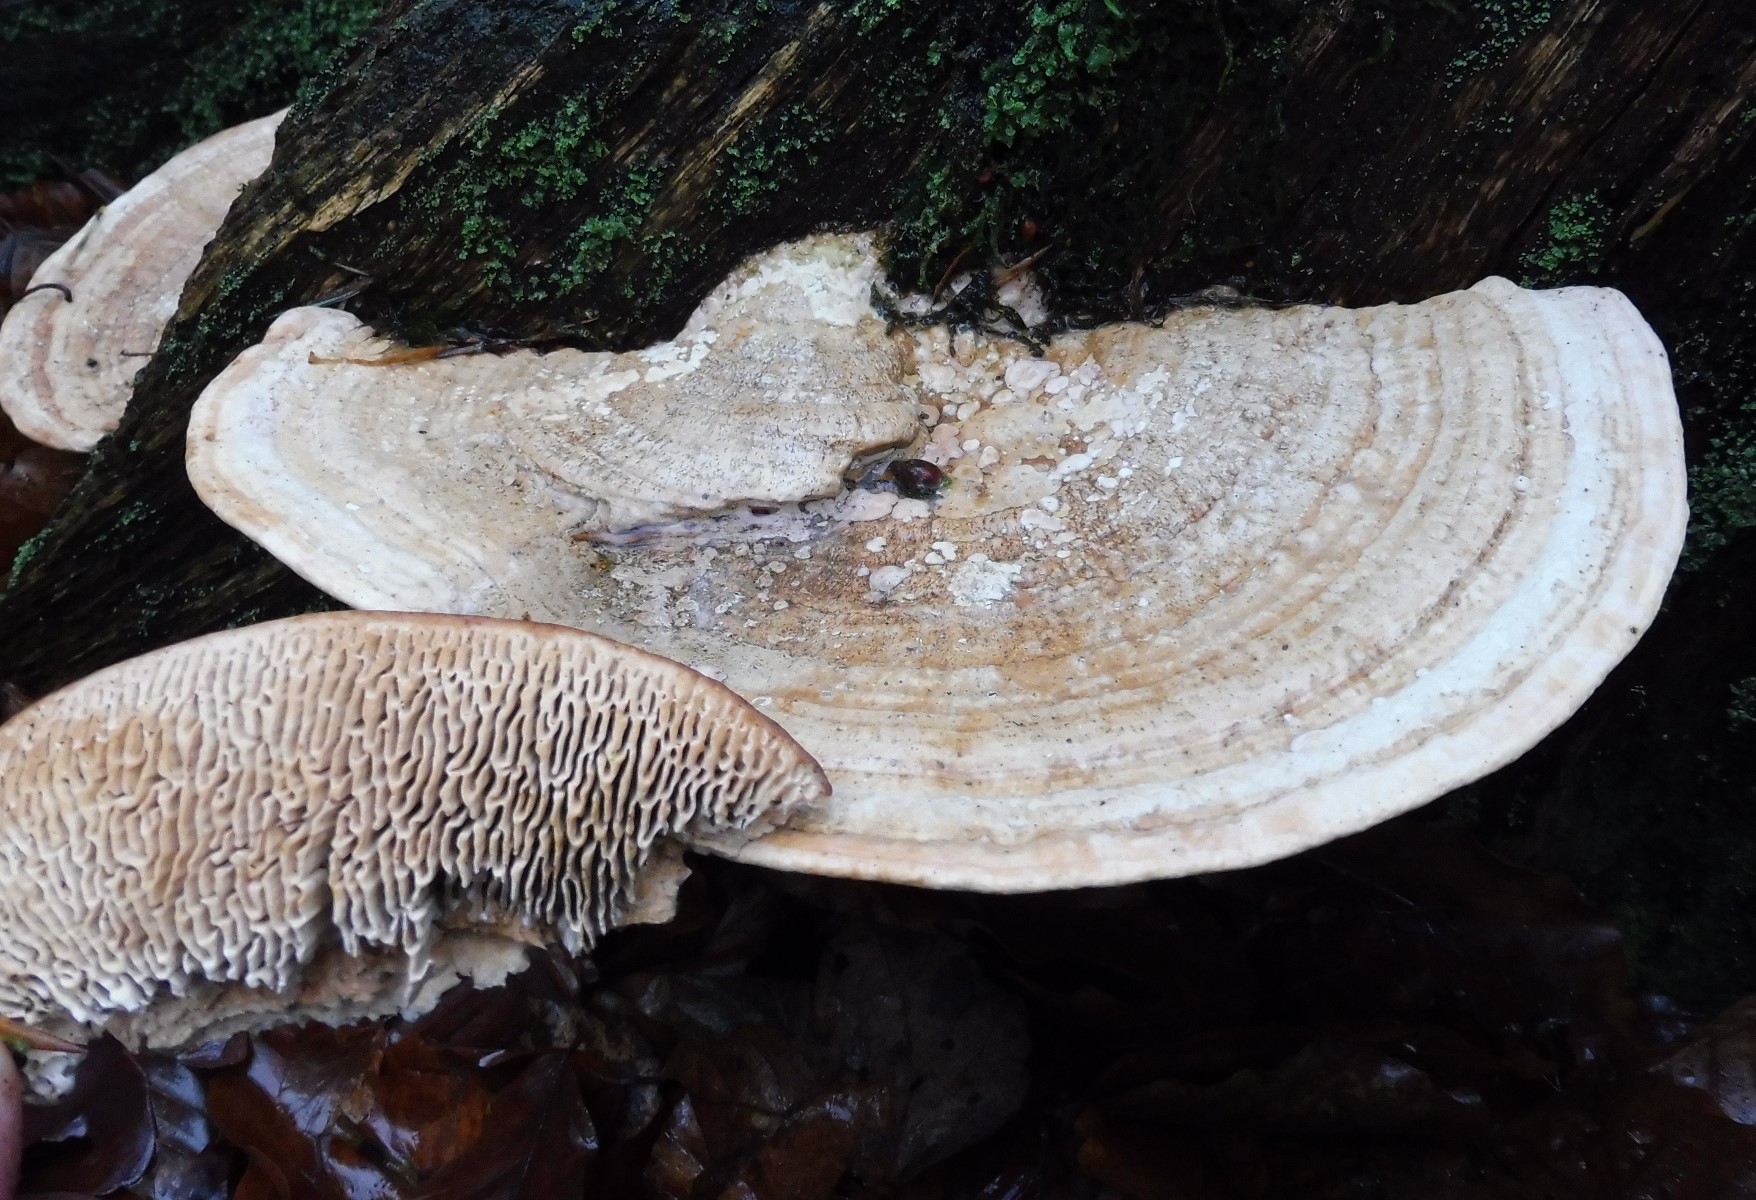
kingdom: Fungi
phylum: Basidiomycota
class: Agaricomycetes
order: Polyporales
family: Fomitopsidaceae
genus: Daedalea
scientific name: Daedalea quercina
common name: ege-labyrintsvamp
